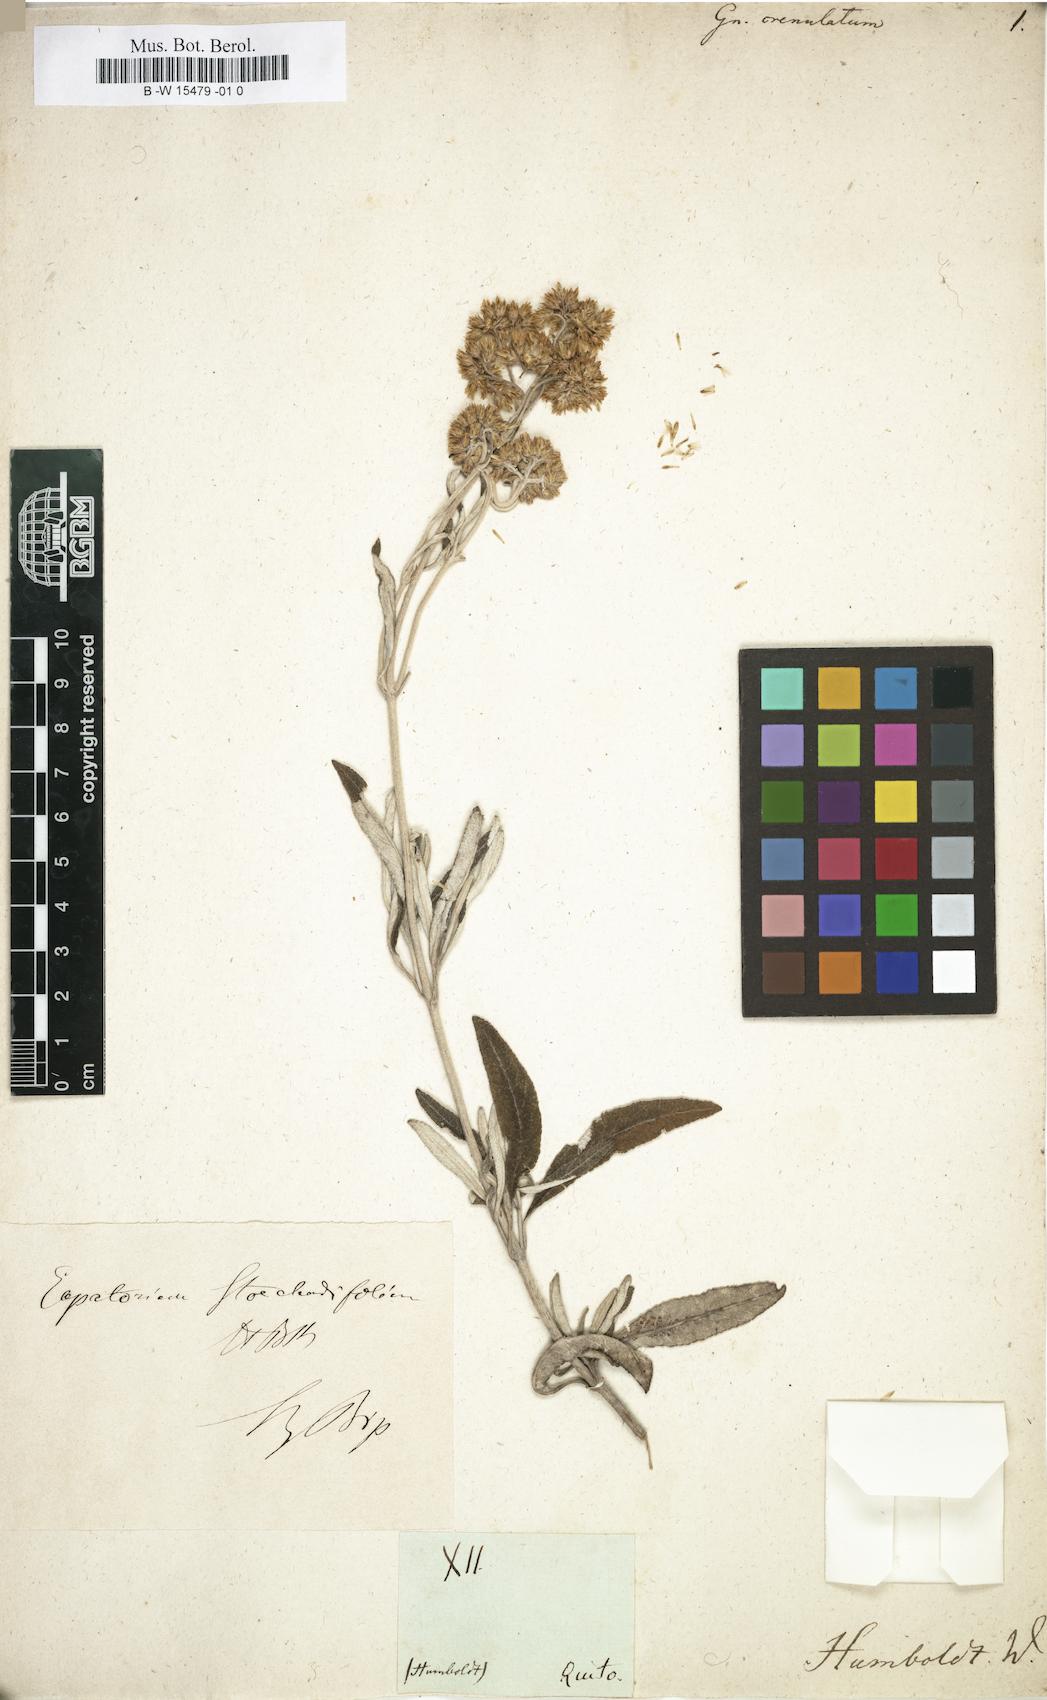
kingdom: Plantae
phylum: Tracheophyta
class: Magnoliopsida
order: Asterales
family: Asteraceae
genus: Pseudognaphalium
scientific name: Pseudognaphalium viscosum
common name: Sticky rabbit-tobacco
